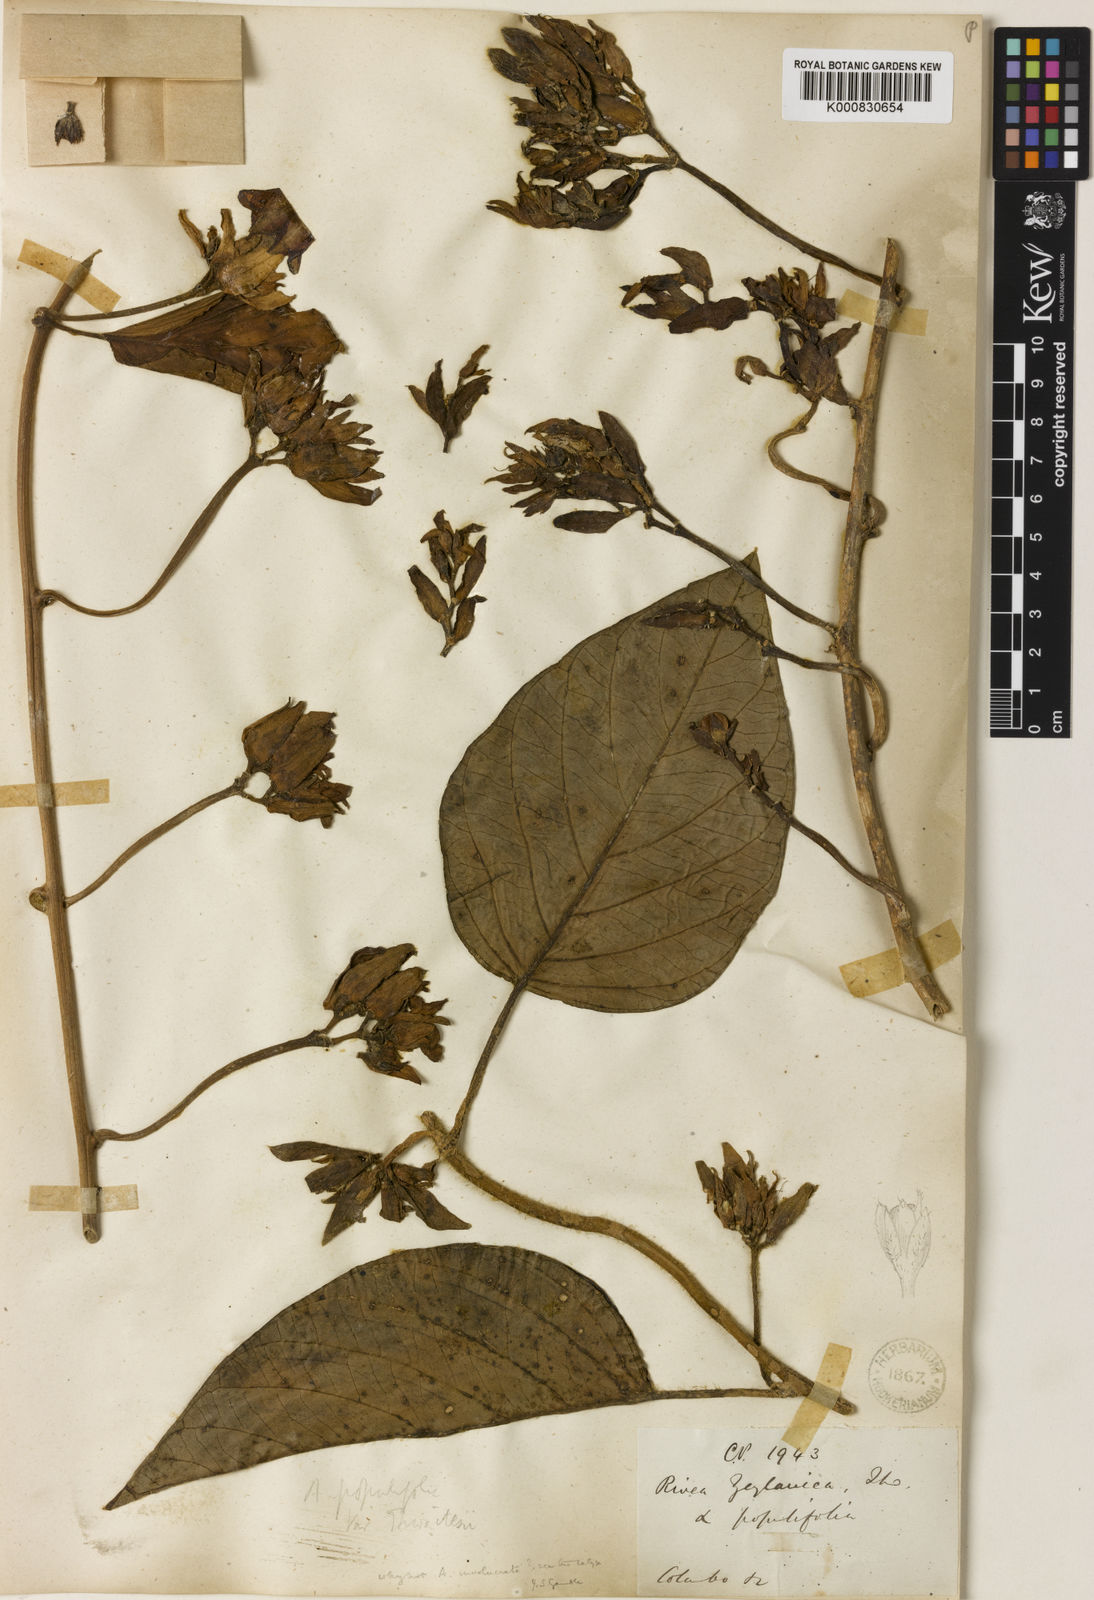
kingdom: Plantae
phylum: Tracheophyta
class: Magnoliopsida
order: Solanales
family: Convolvulaceae
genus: Argyreia
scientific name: Argyreia
